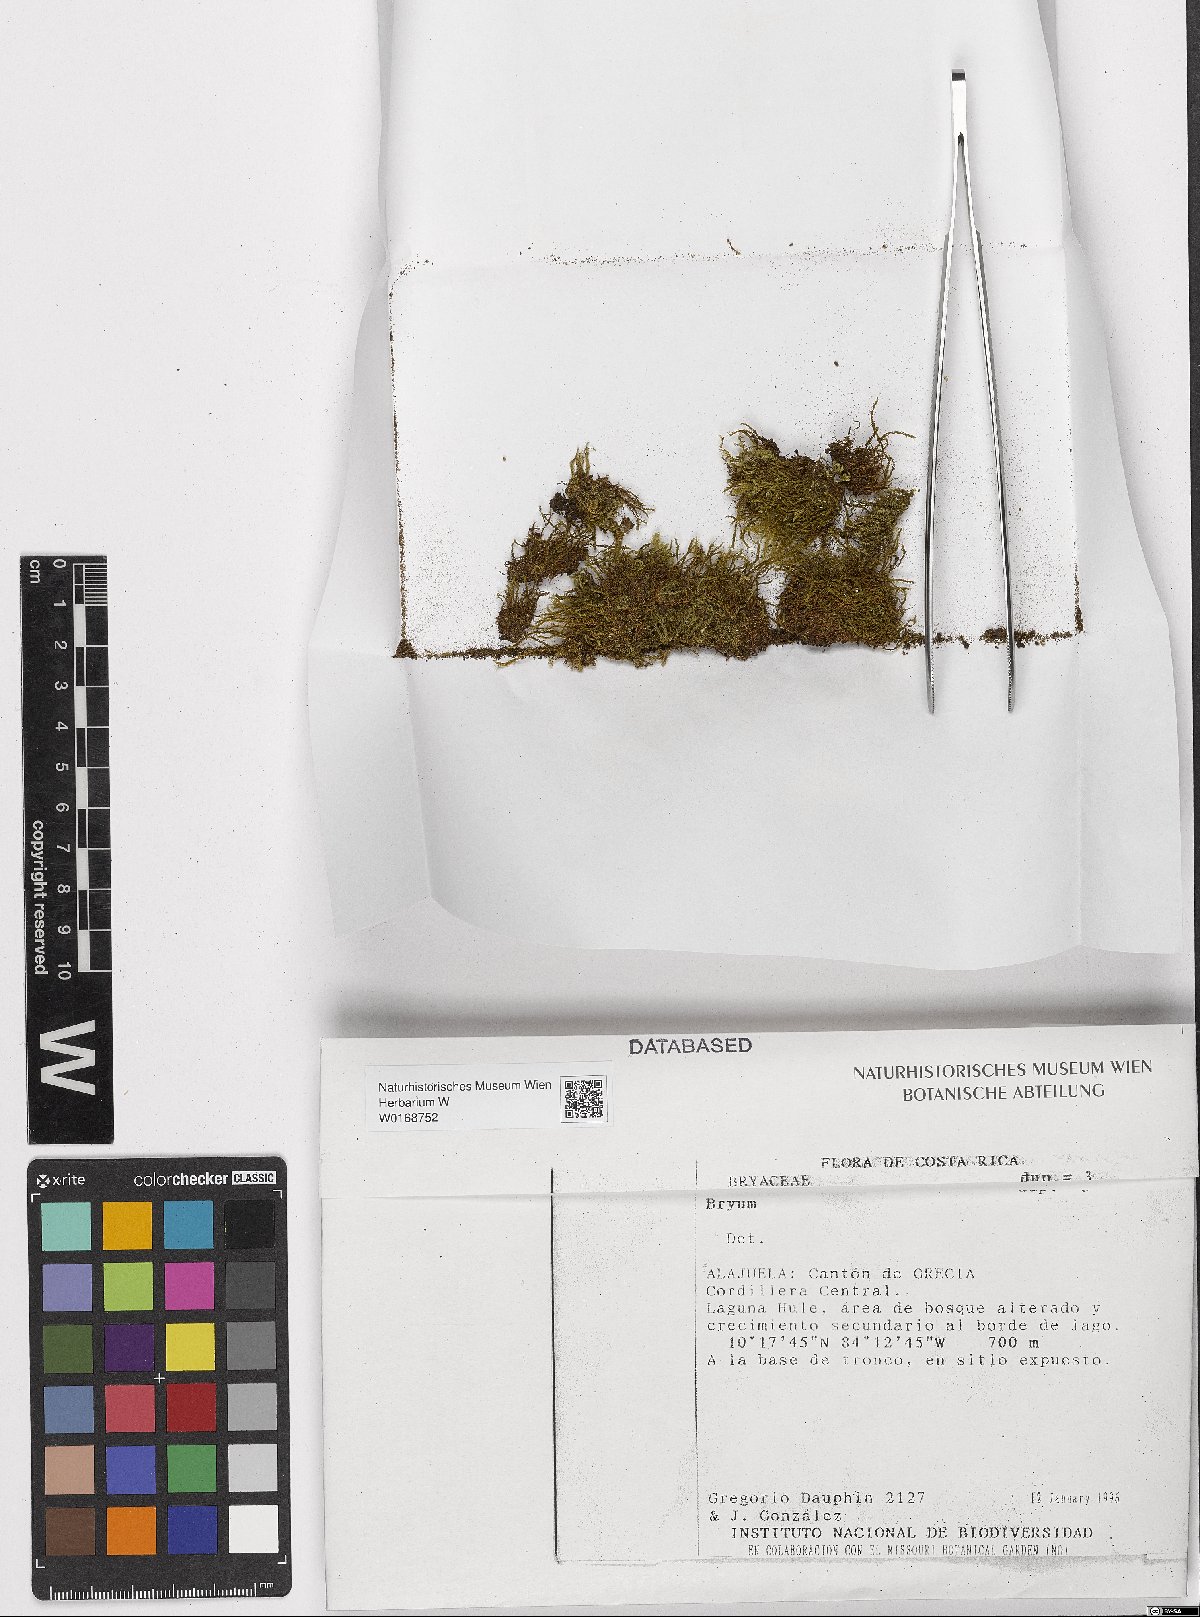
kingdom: Plantae
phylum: Bryophyta
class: Bryopsida
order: Bryales
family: Bryaceae
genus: Bryum
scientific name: Bryum
